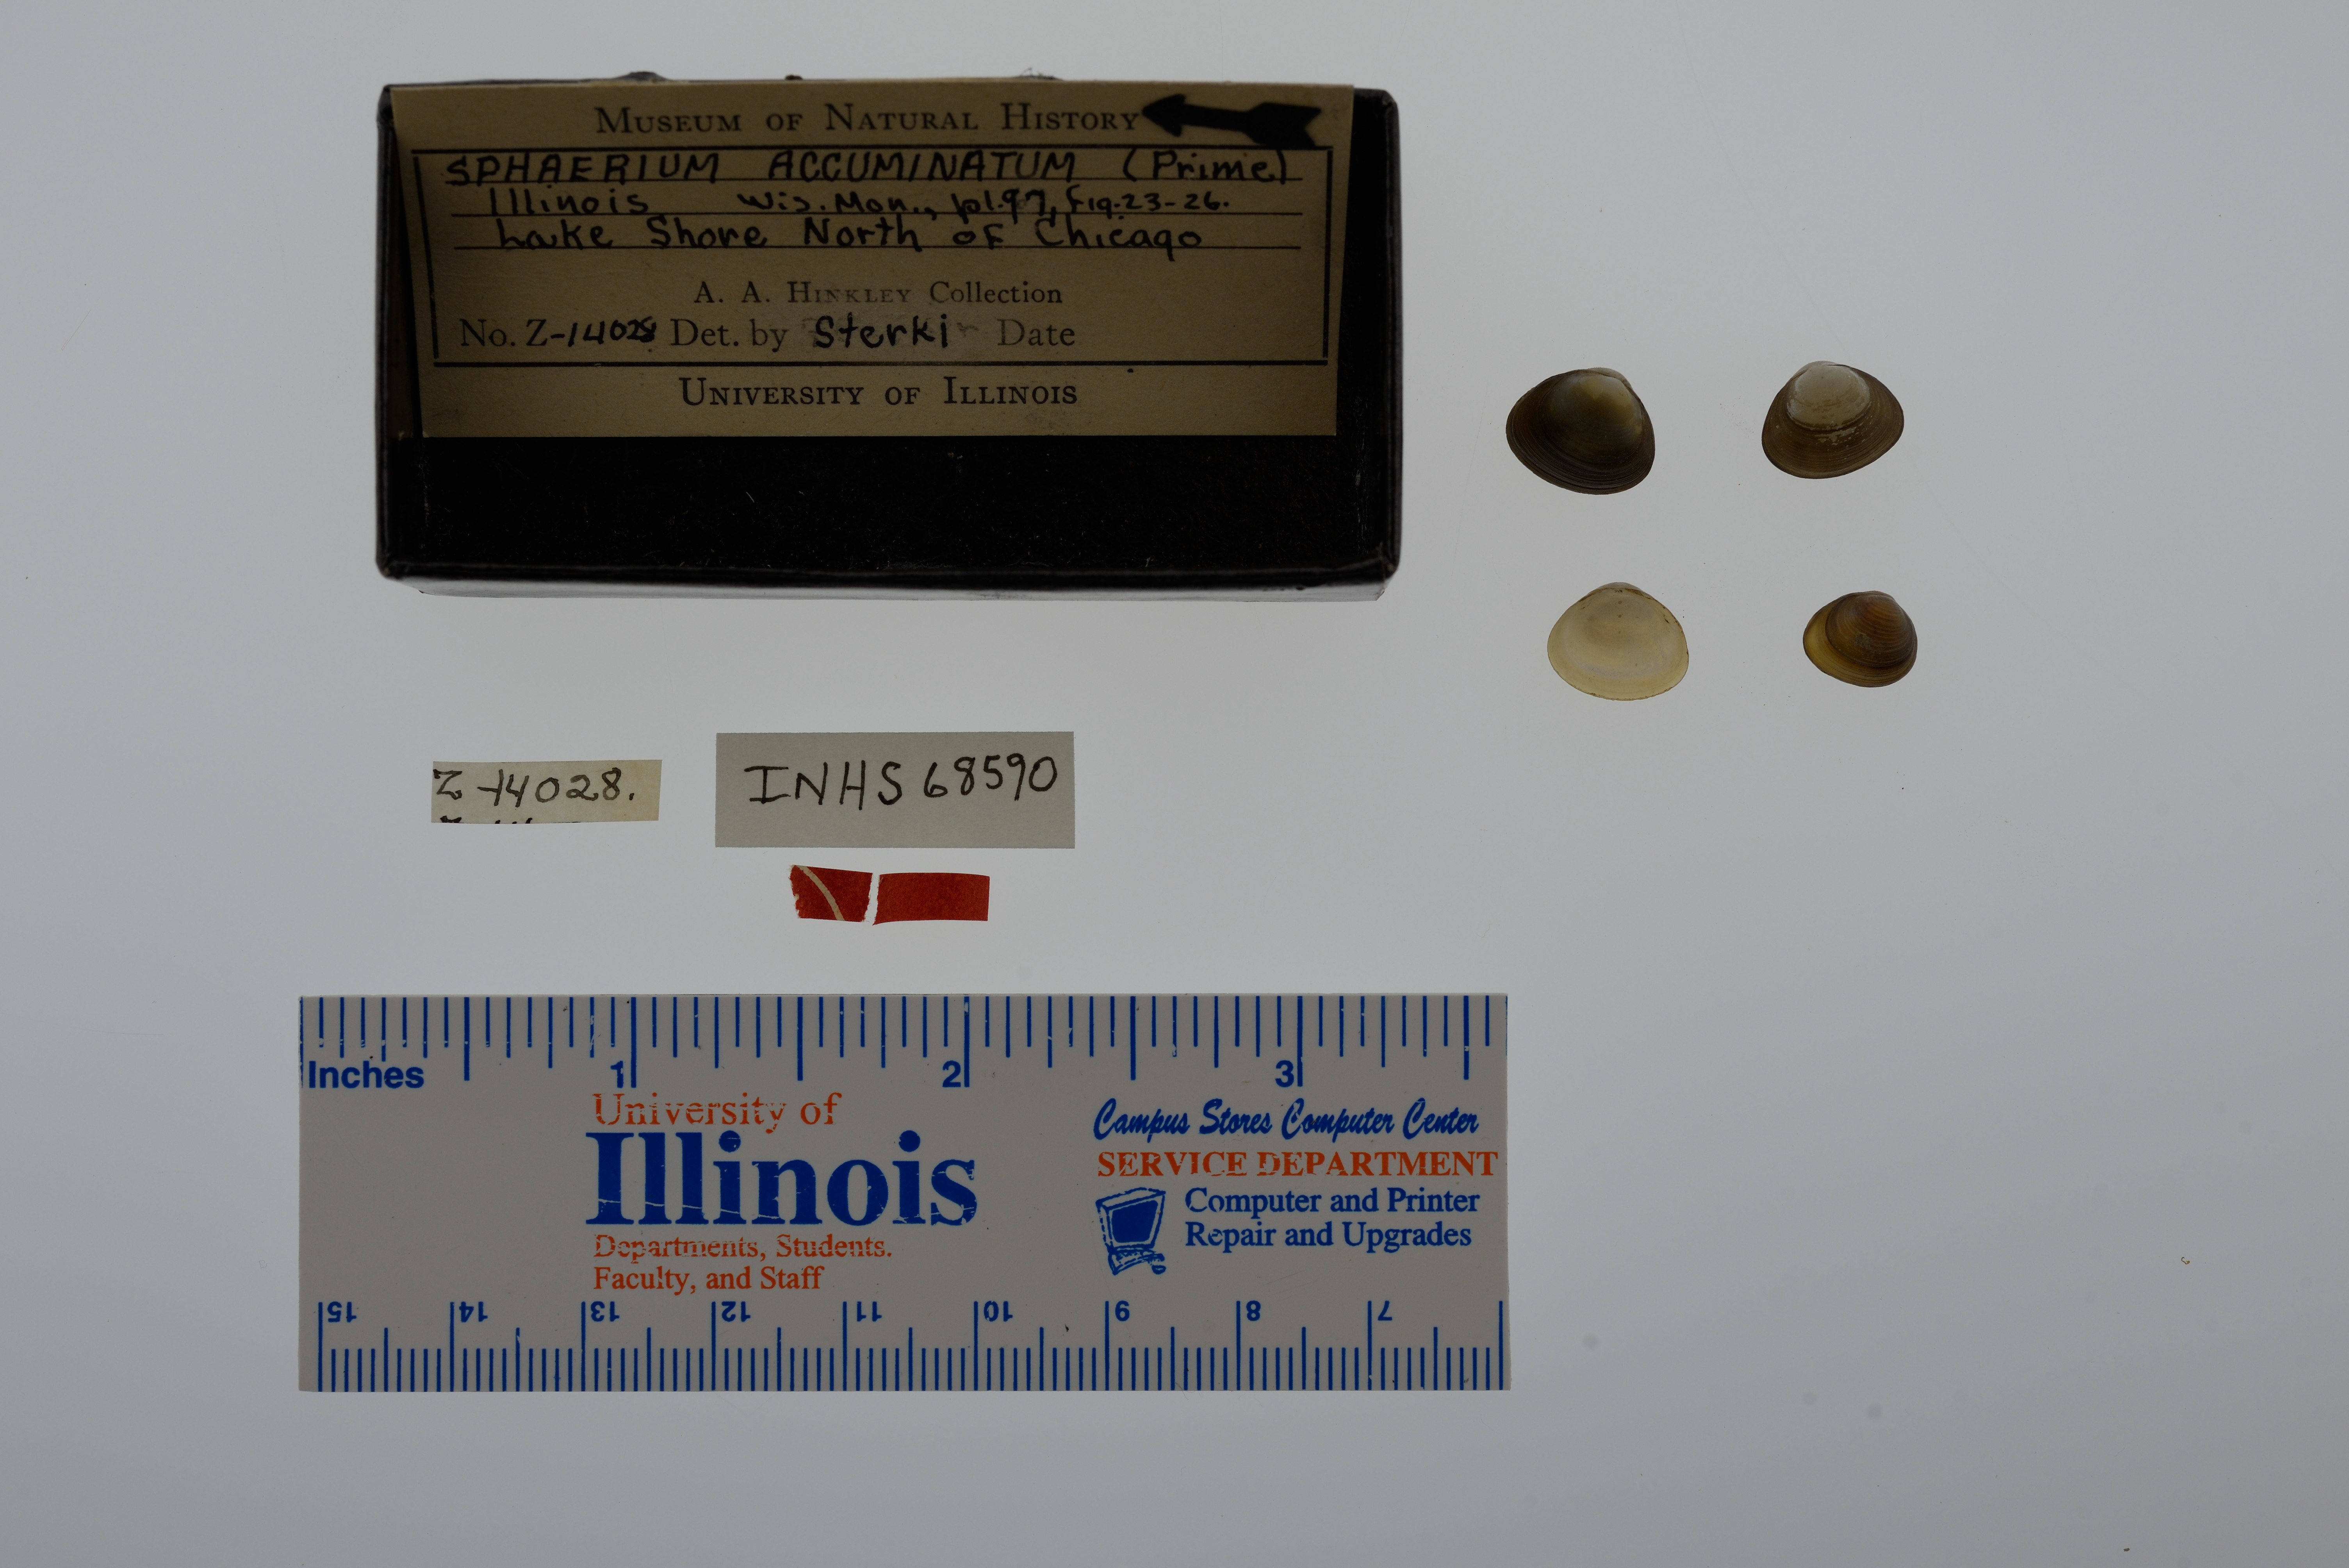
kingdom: Animalia
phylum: Mollusca
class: Bivalvia
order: Sphaeriida
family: Sphaeriidae
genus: Sphaerium
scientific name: Sphaerium striatinum
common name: Striated fingernailclam
